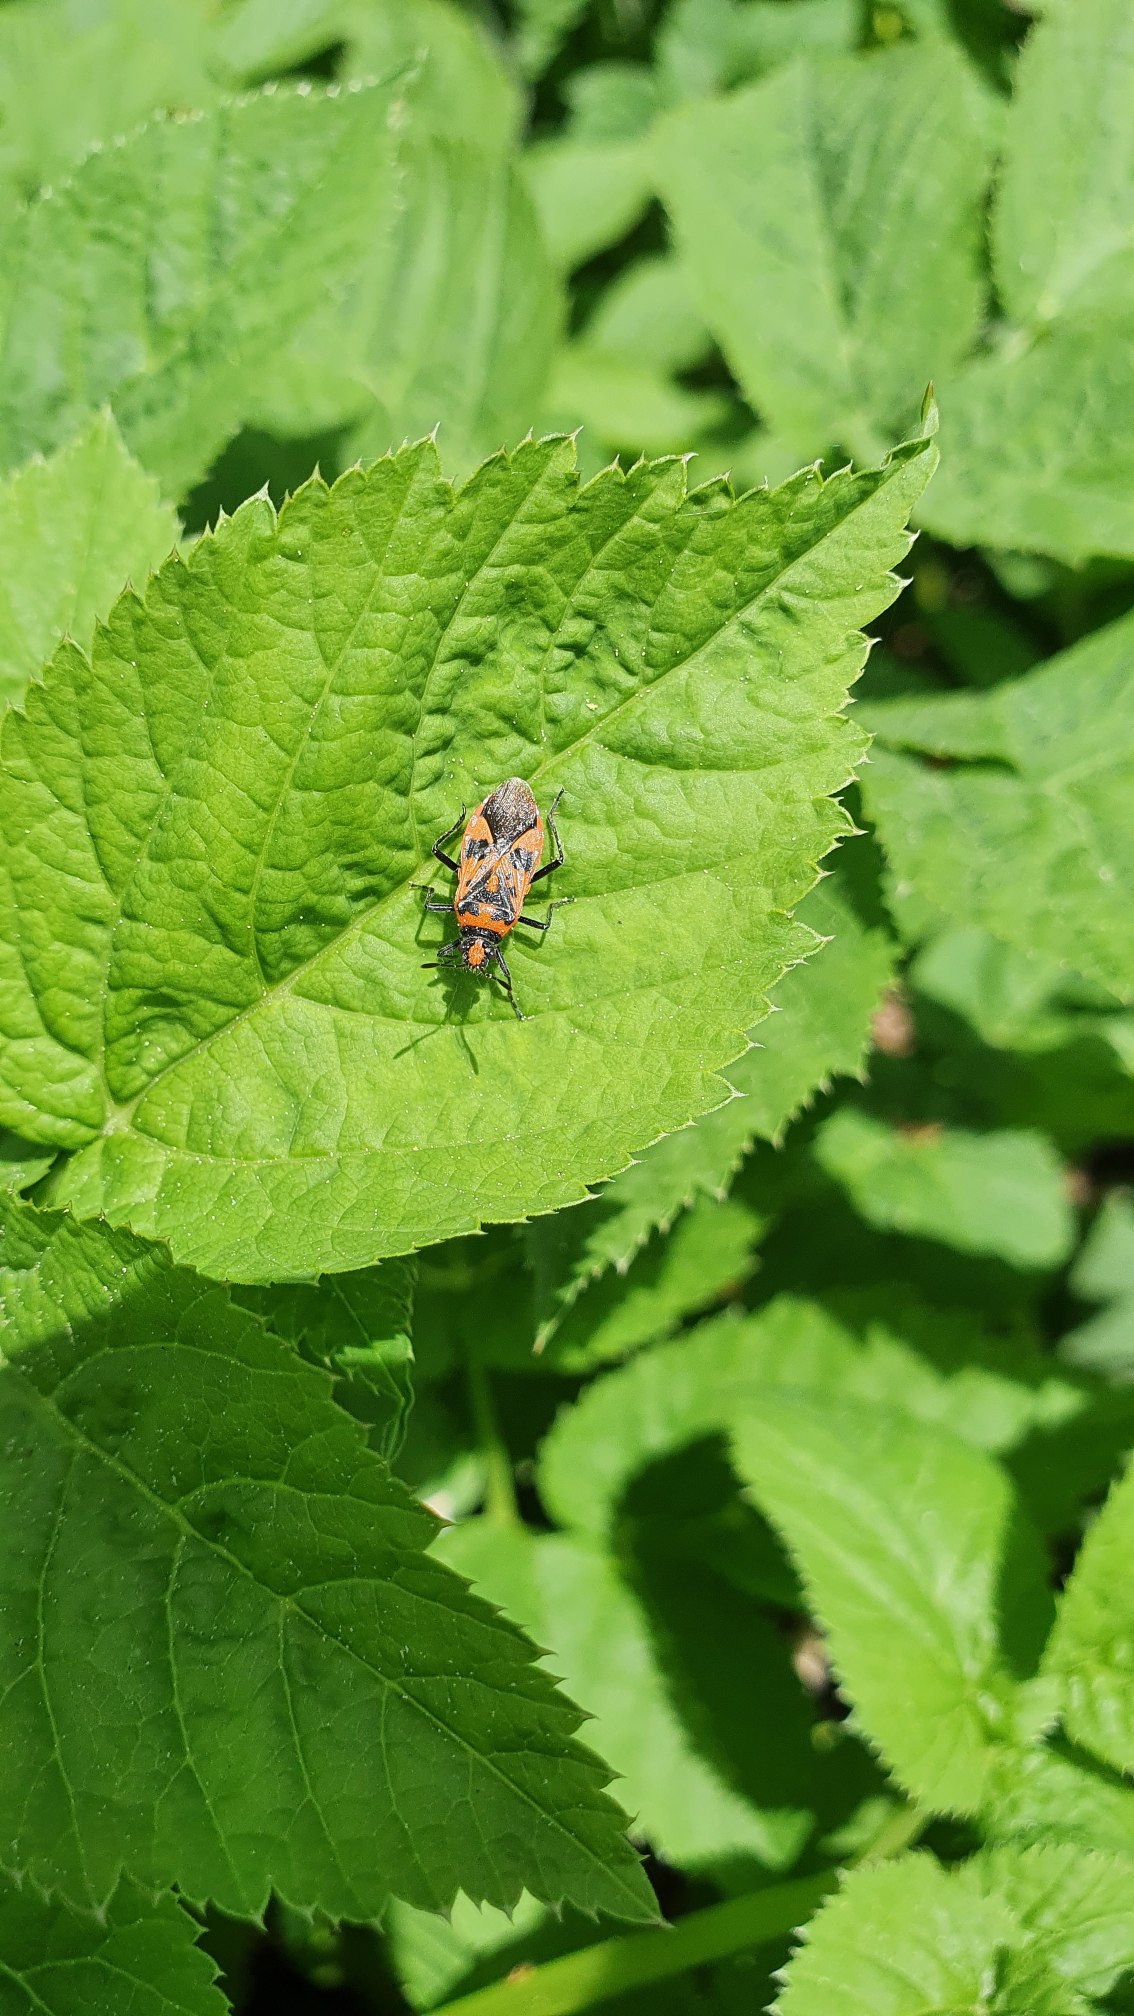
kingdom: Animalia
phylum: Arthropoda
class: Insecta
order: Hemiptera
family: Rhopalidae
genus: Corizus
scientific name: Corizus hyoscyami
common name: Rød kanttæge
